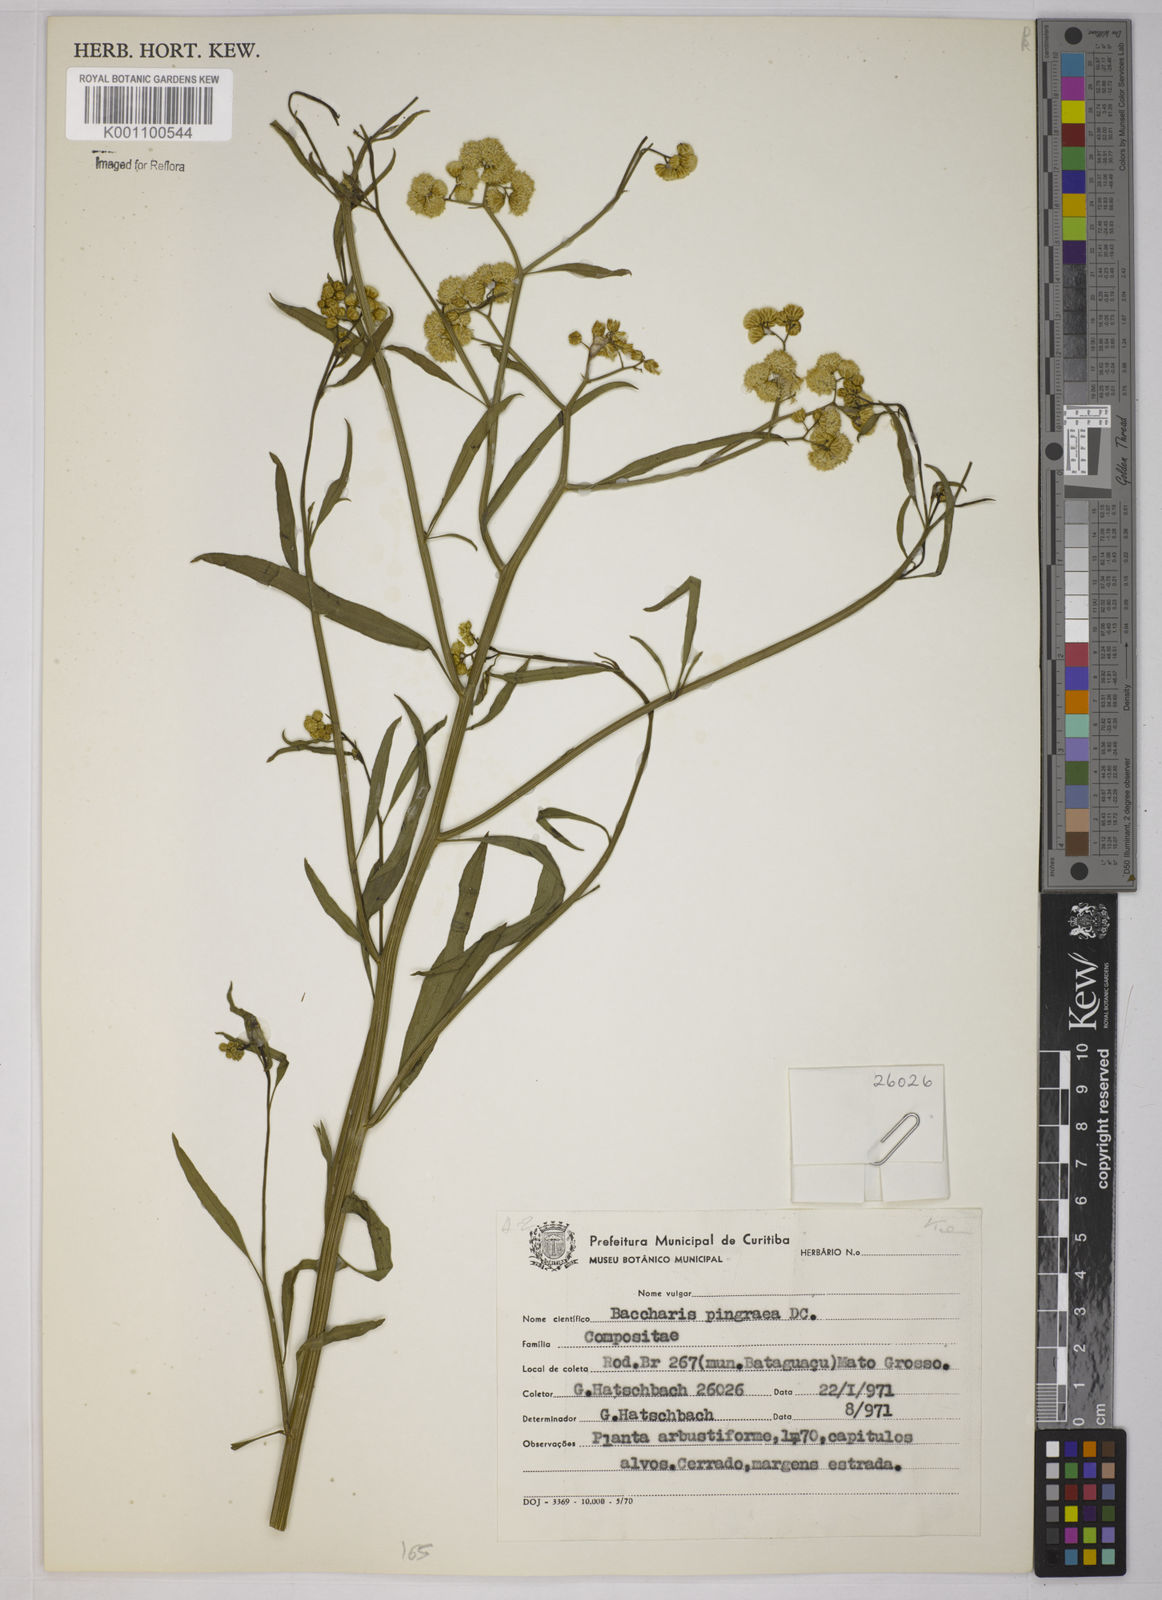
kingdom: Plantae
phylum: Tracheophyta
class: Magnoliopsida
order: Asterales
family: Asteraceae
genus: Baccharis
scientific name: Baccharis glutinosa
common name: Saltmarsh baccharis
